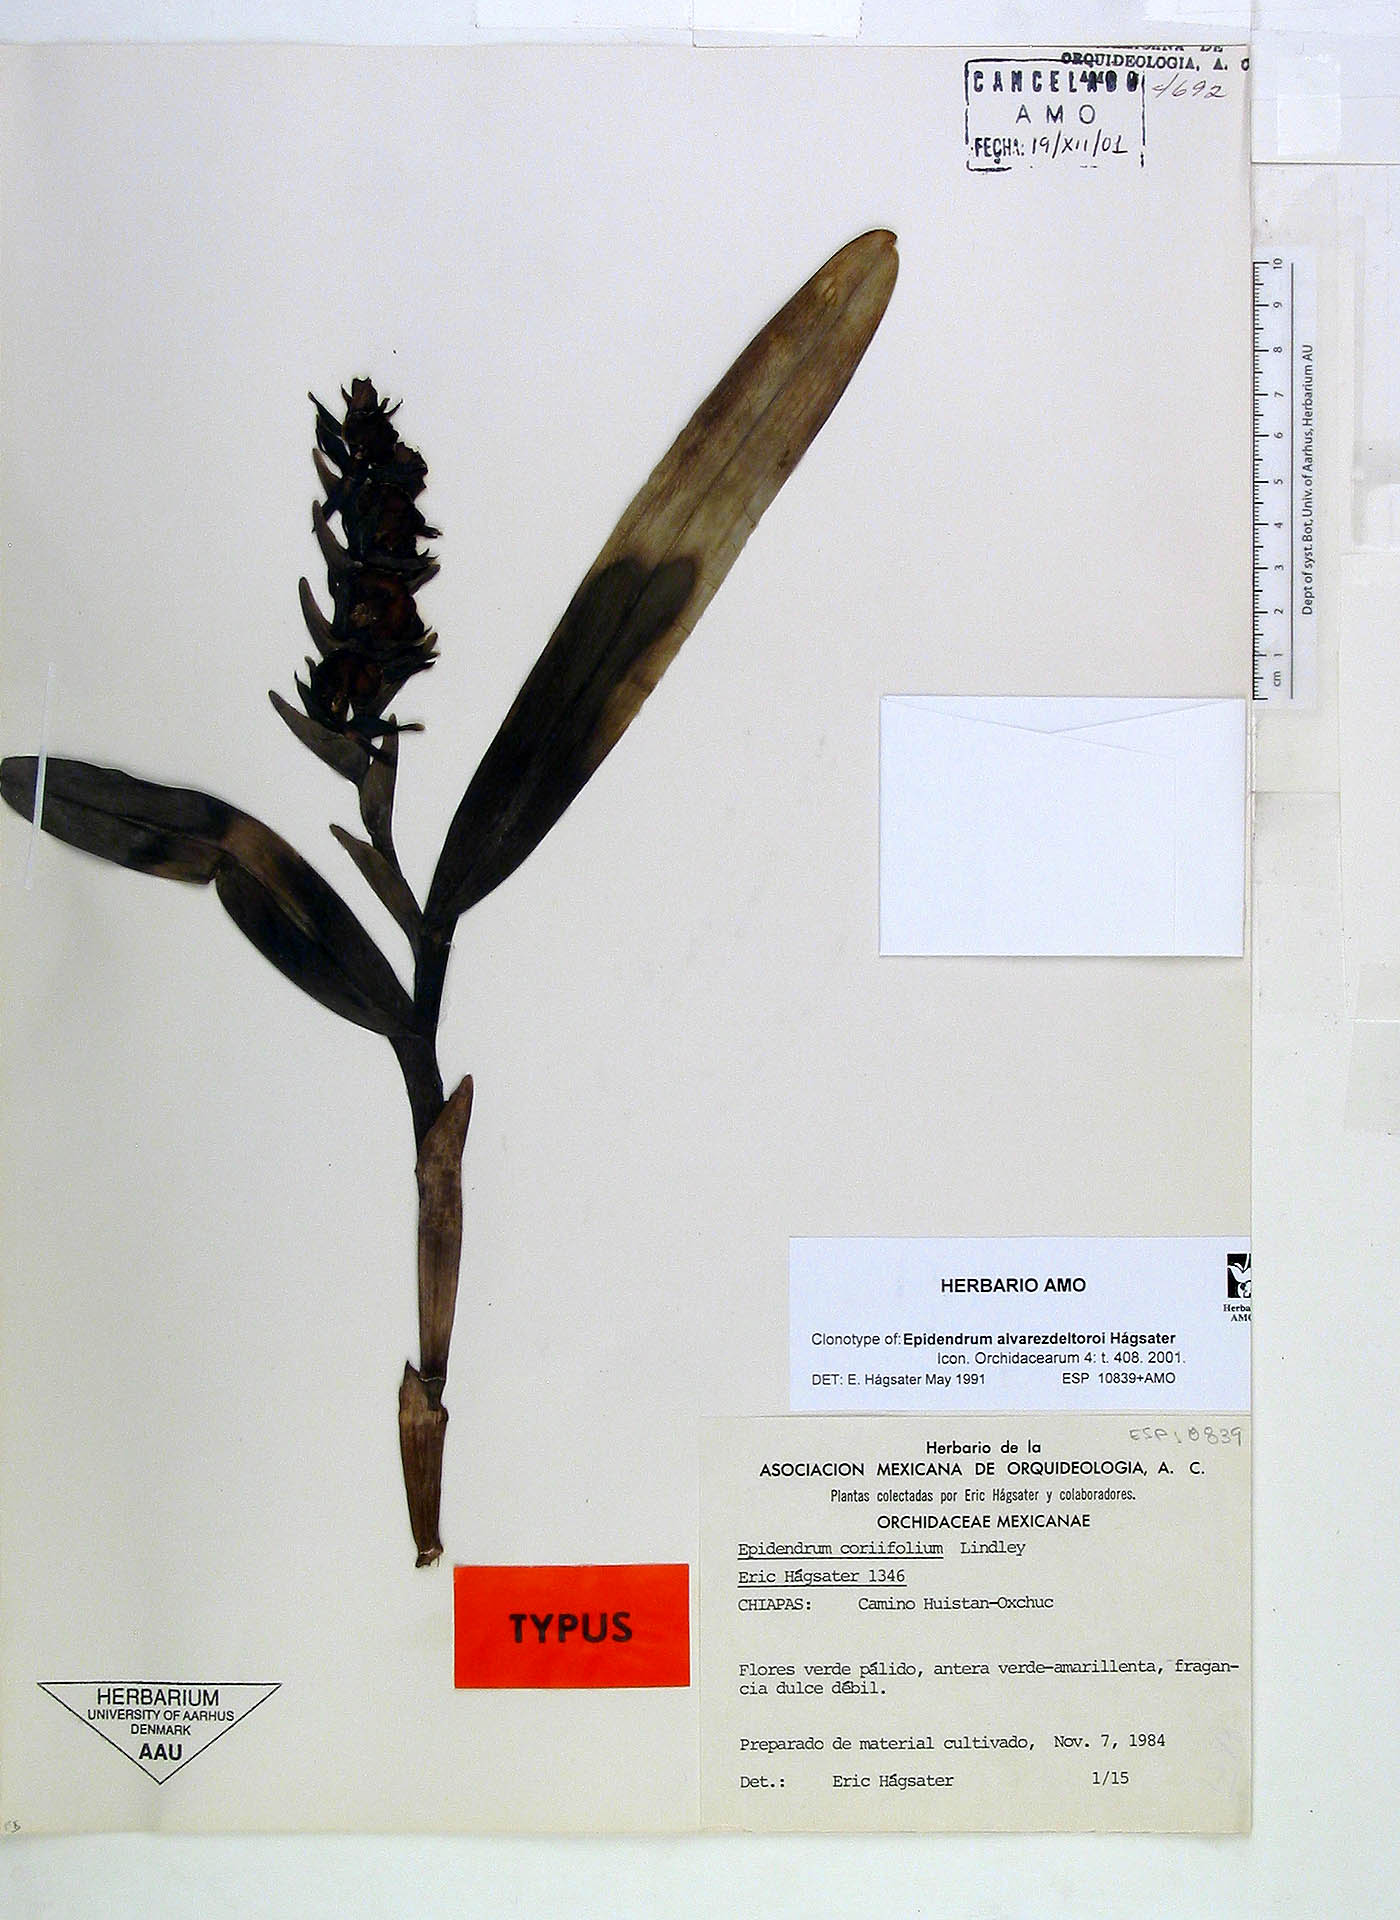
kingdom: Plantae
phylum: Tracheophyta
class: Liliopsida
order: Asparagales
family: Orchidaceae
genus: Epidendrum
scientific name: Epidendrum alvarezdeltoroi
